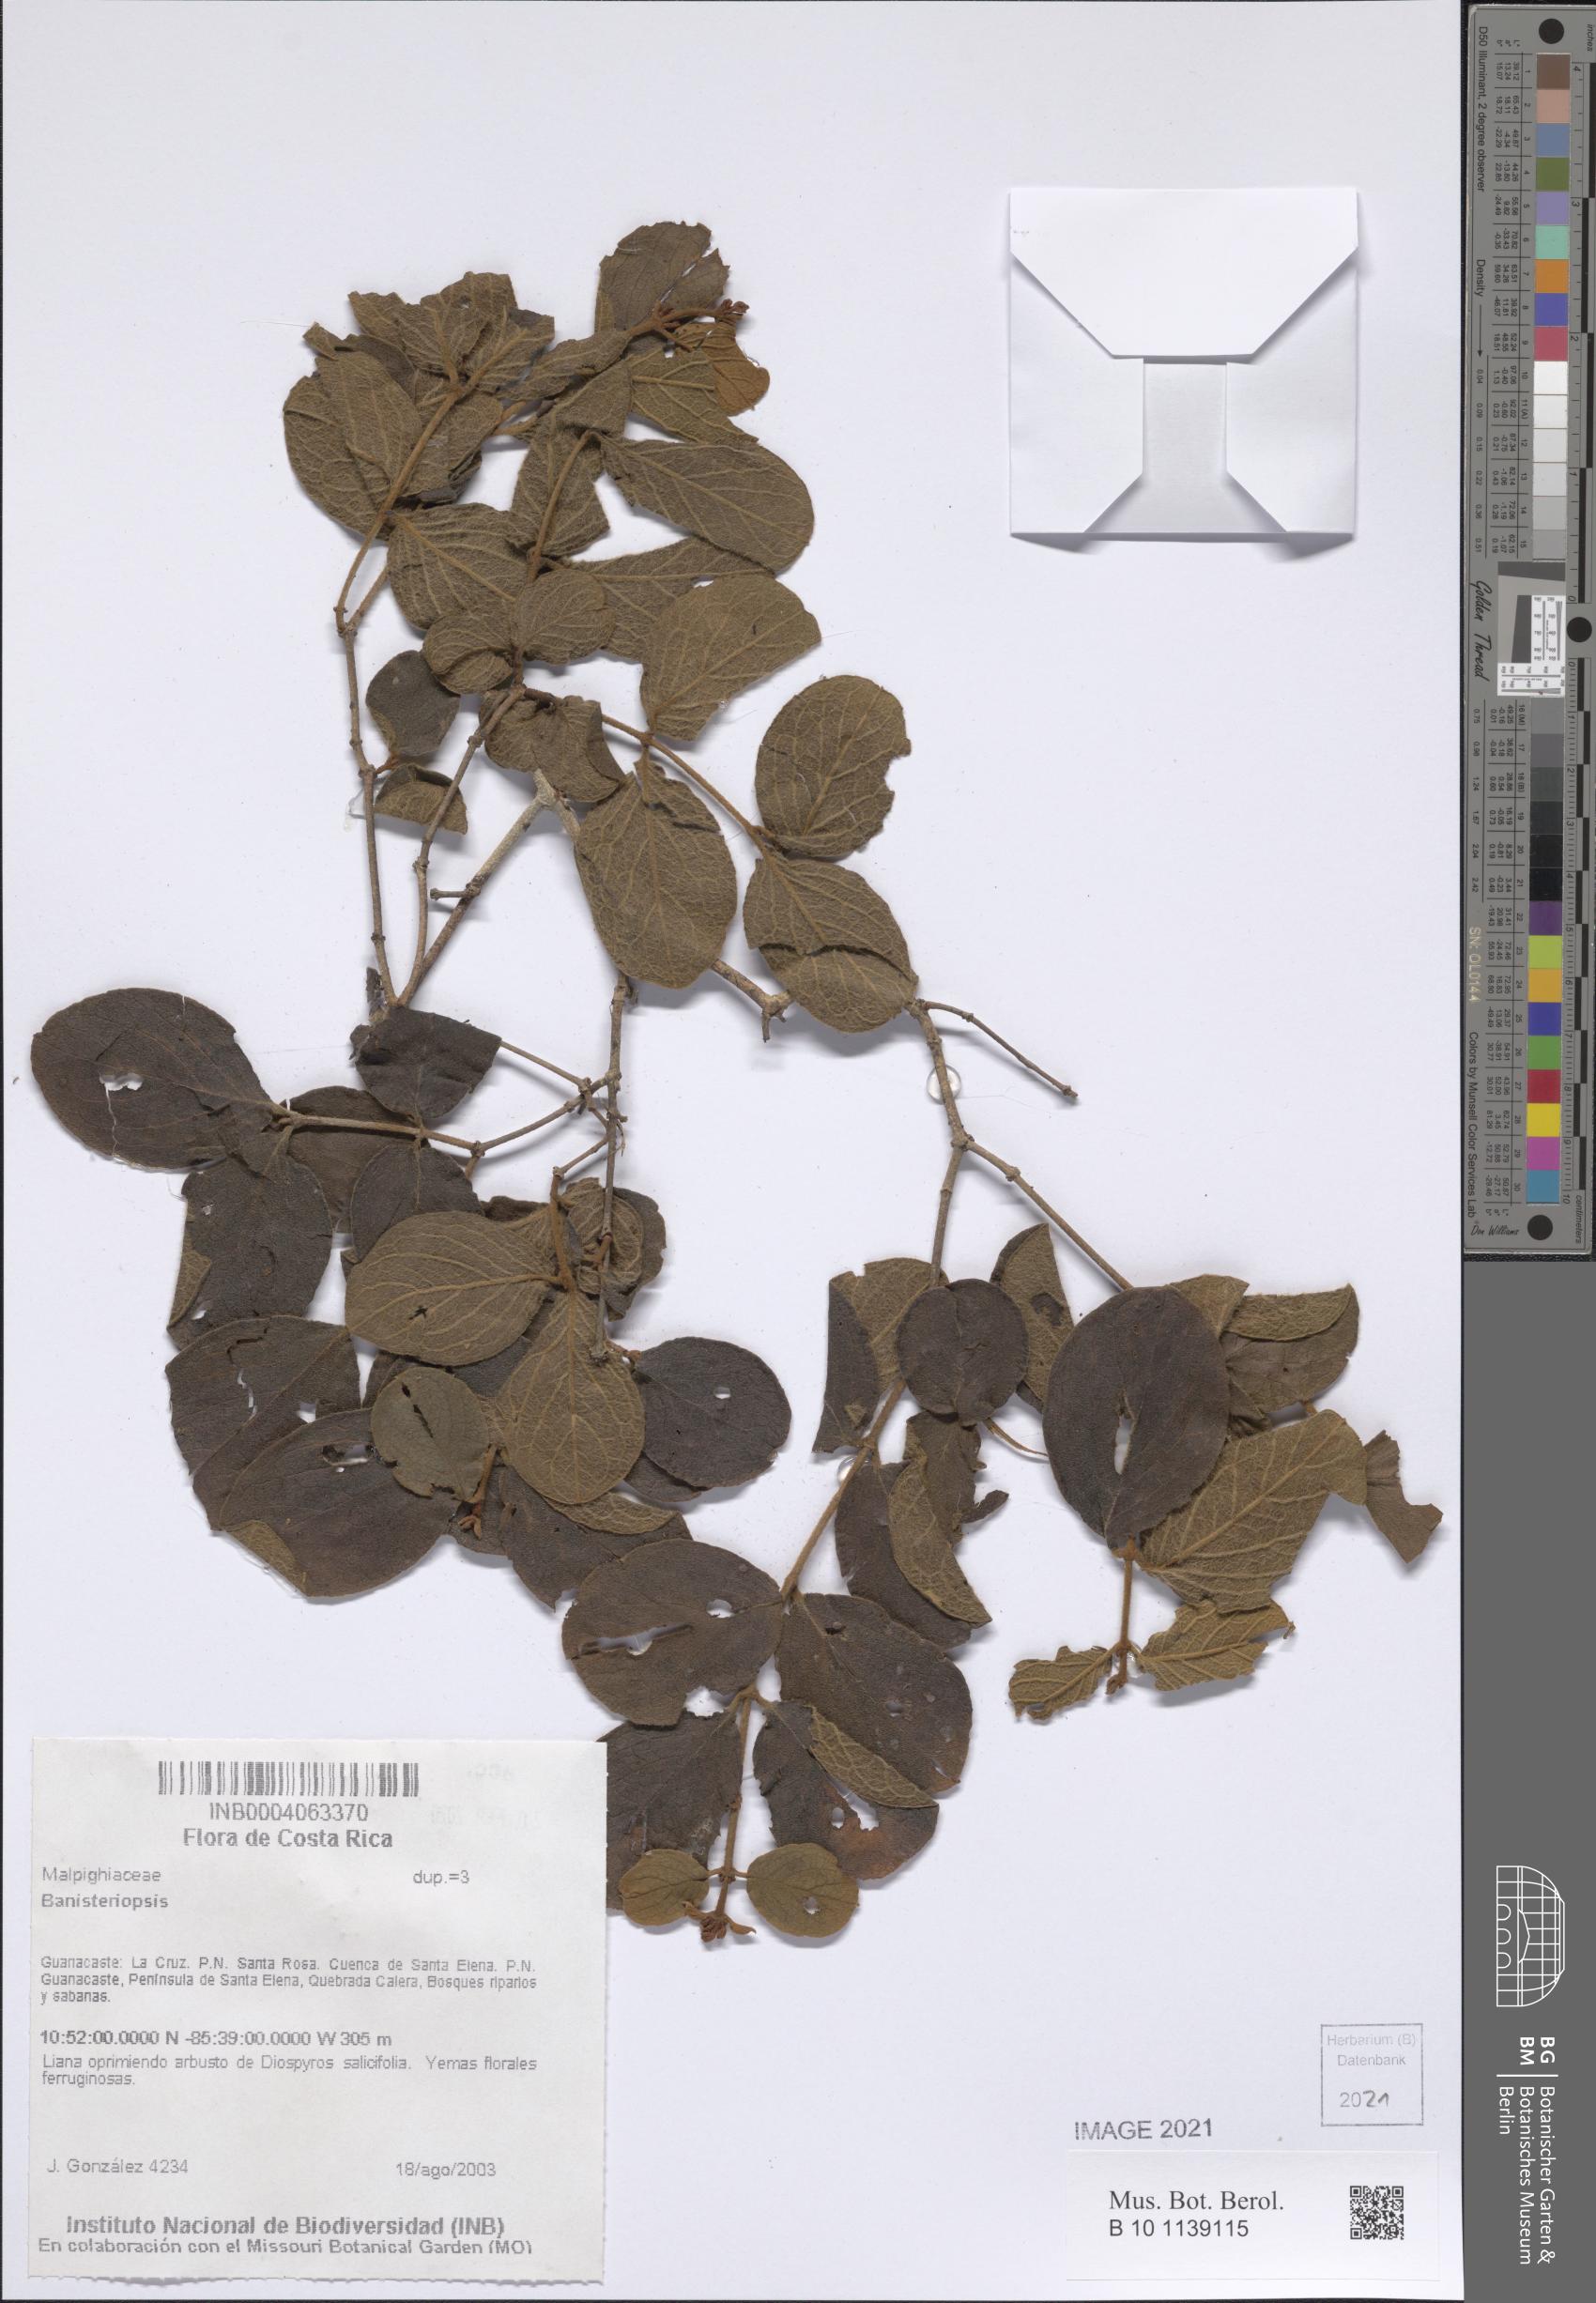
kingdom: Plantae
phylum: Tracheophyta
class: Magnoliopsida
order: Malpighiales
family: Malpighiaceae
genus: Banisteriopsis
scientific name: Banisteriopsis
